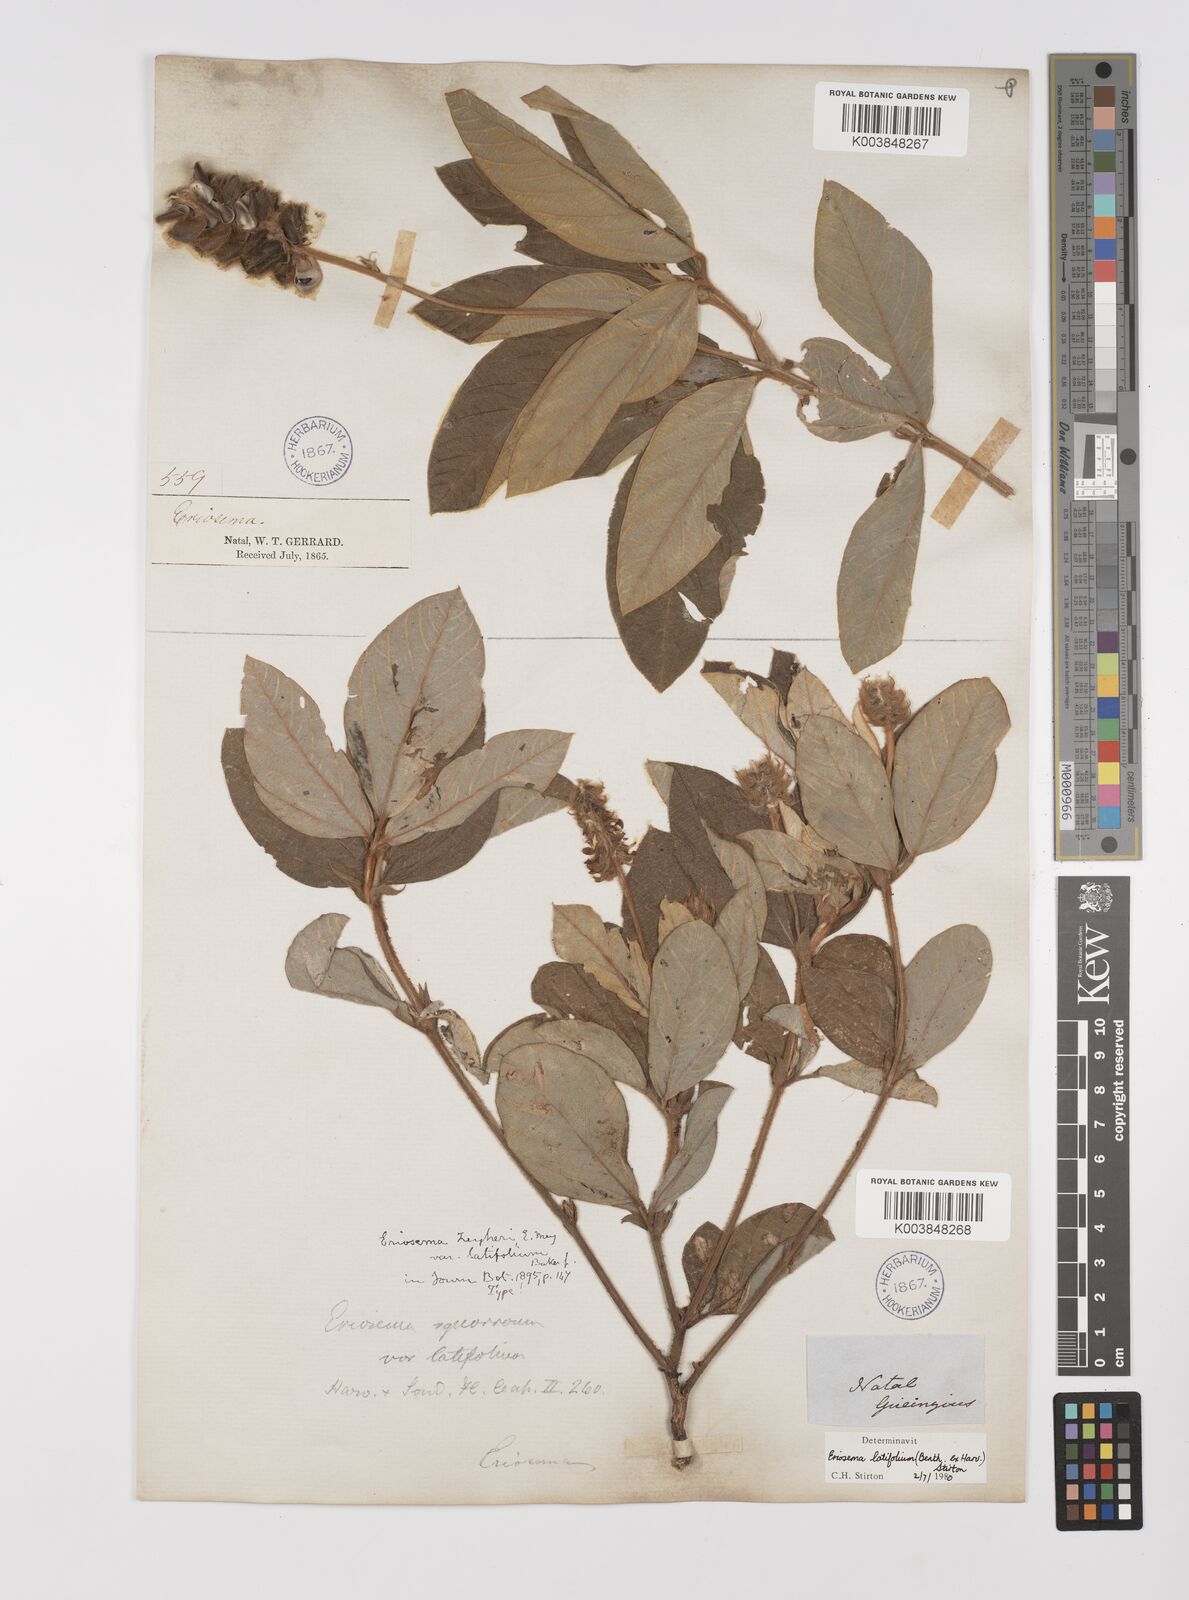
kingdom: Plantae
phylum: Tracheophyta
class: Magnoliopsida
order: Fabales
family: Fabaceae
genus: Eriosema
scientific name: Eriosema latifolium
